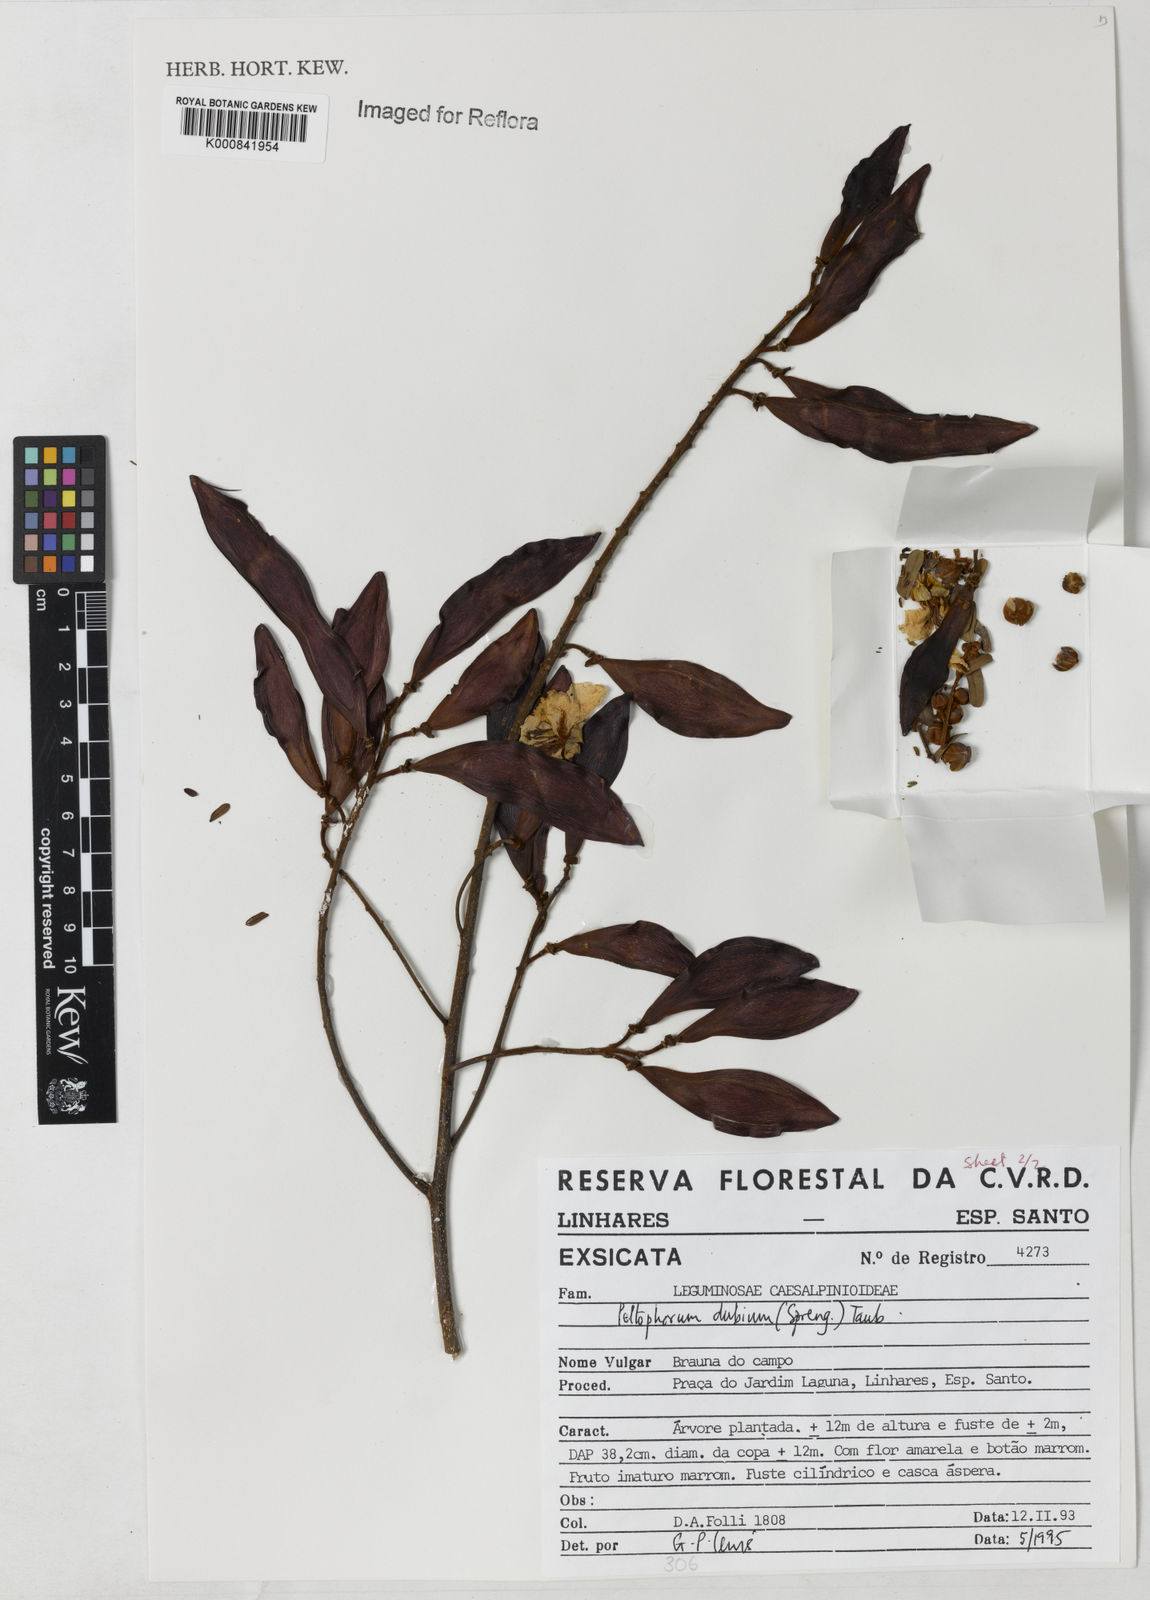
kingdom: Plantae
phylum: Tracheophyta
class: Magnoliopsida
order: Fabales
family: Fabaceae
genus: Peltophorum
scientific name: Peltophorum dubium
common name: Horsebush
